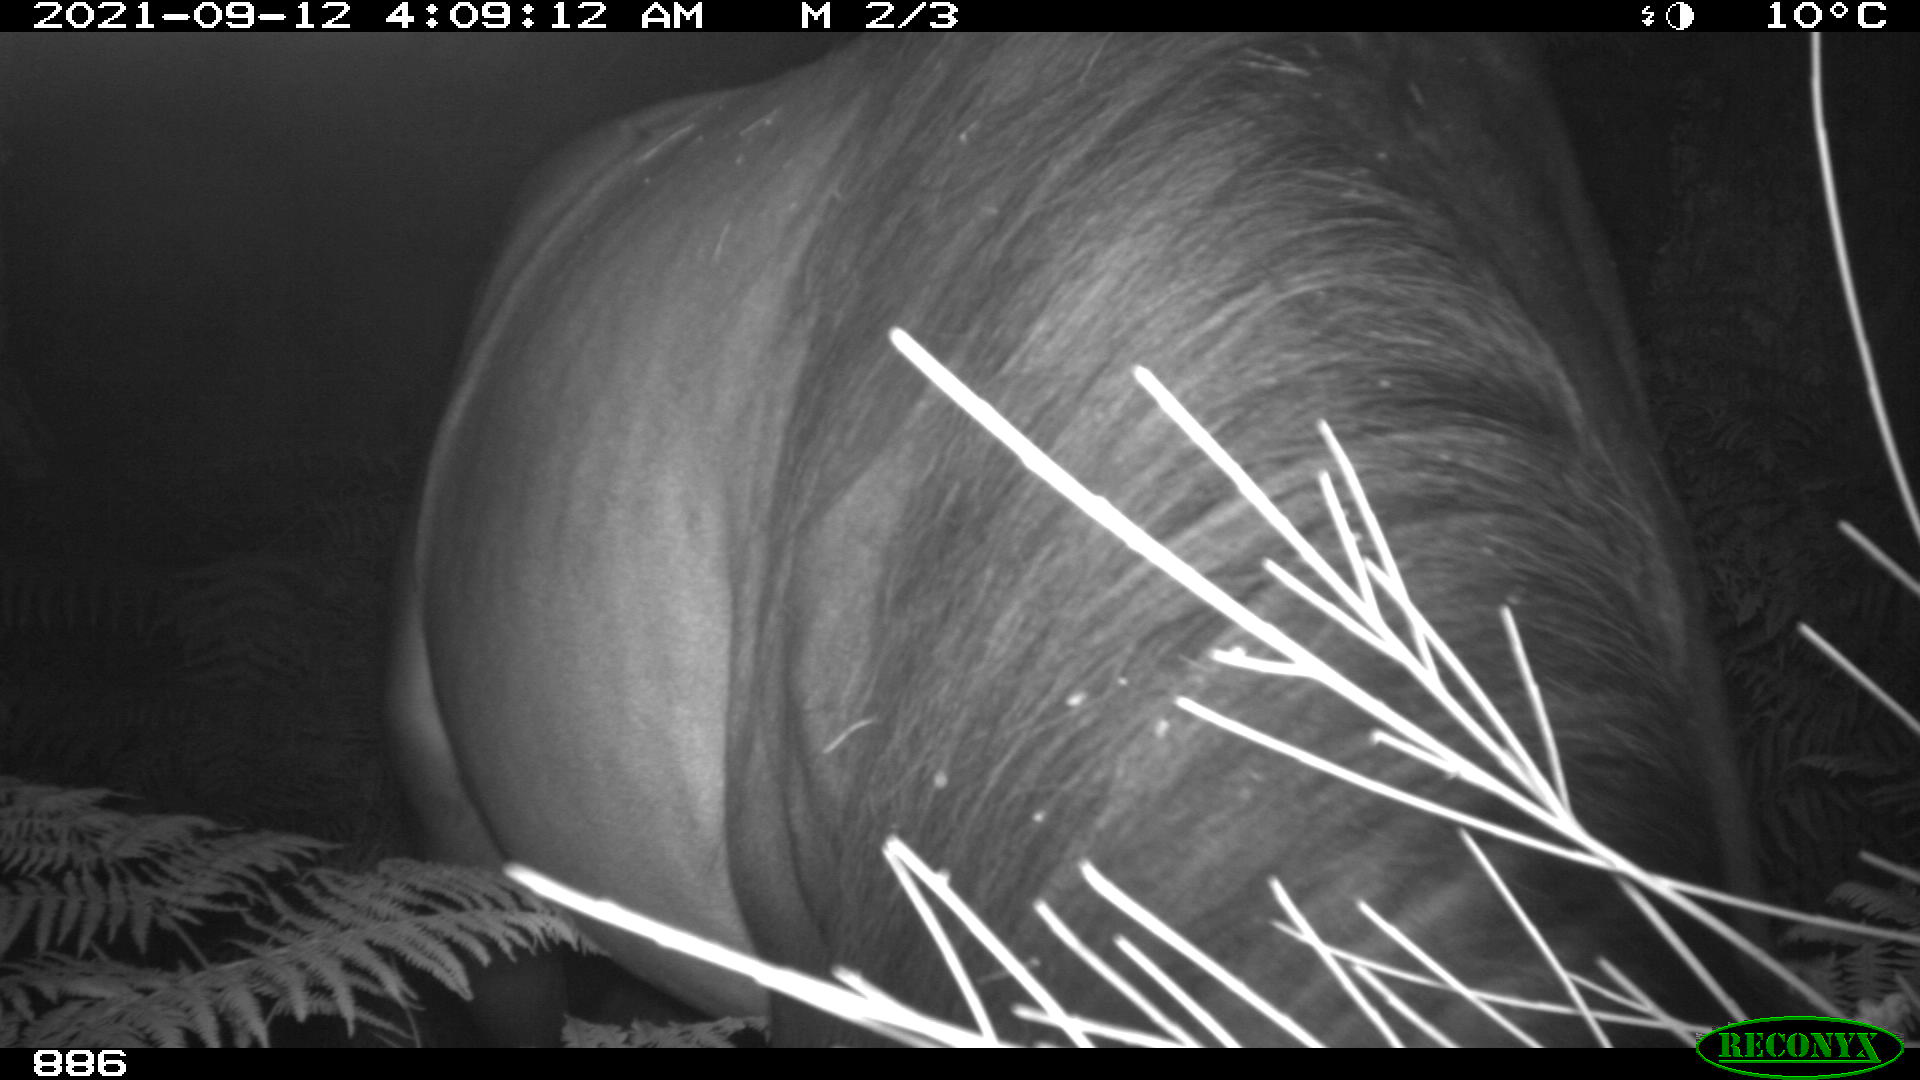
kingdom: Animalia
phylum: Chordata
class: Mammalia
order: Perissodactyla
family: Equidae
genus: Equus
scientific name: Equus caballus
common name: Horse
